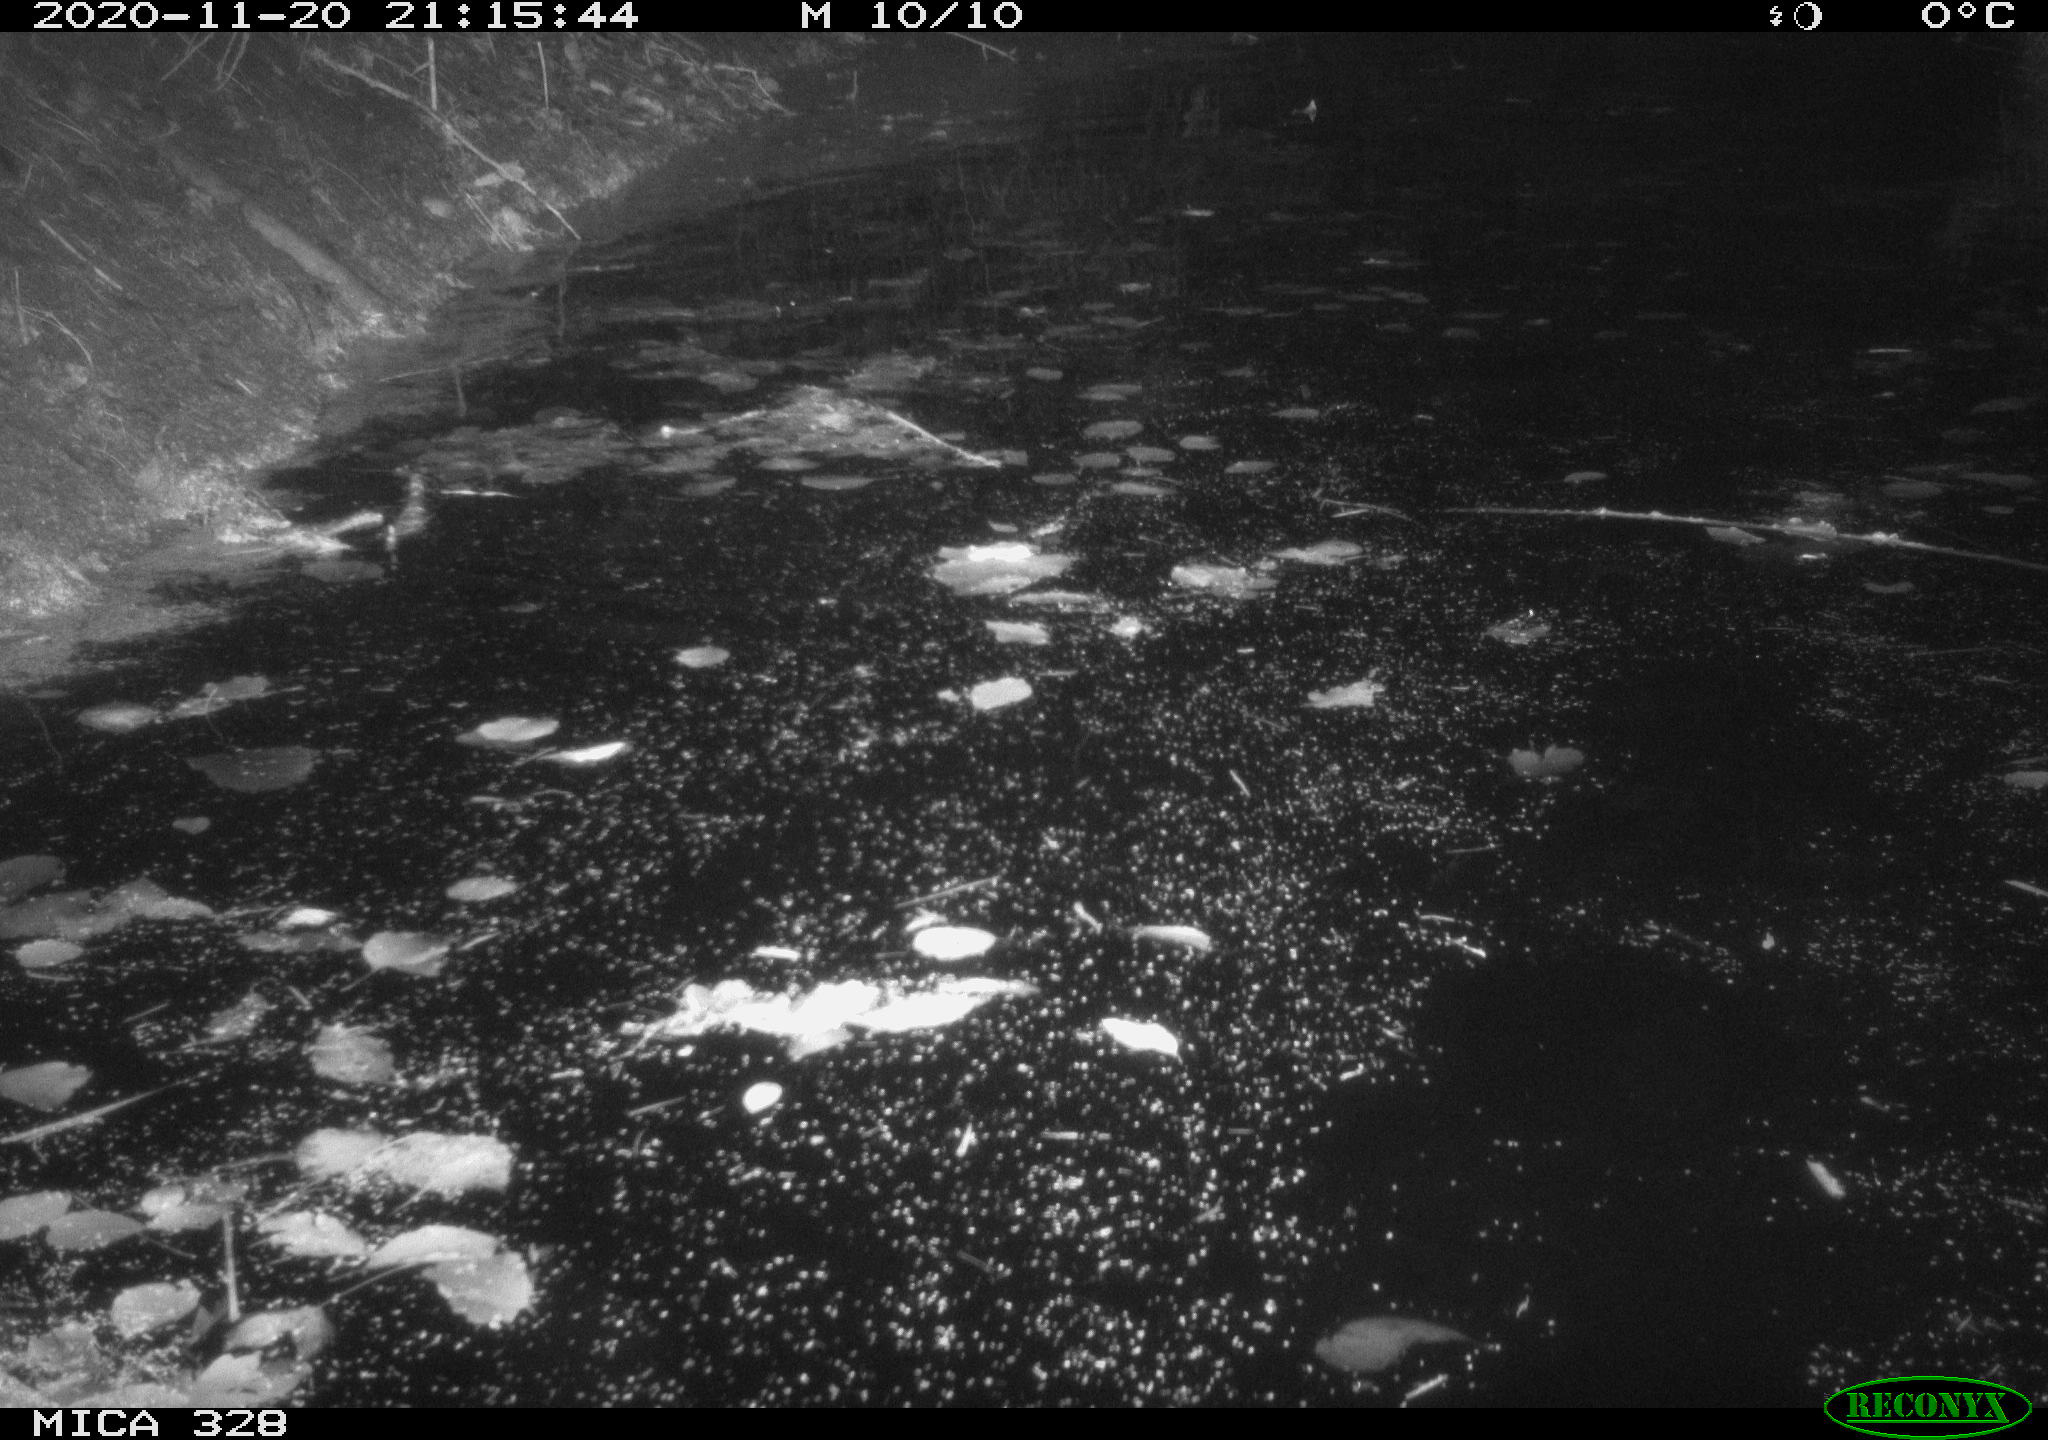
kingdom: Animalia
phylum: Chordata
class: Mammalia
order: Rodentia
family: Myocastoridae
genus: Myocastor
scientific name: Myocastor coypus
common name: Coypu
